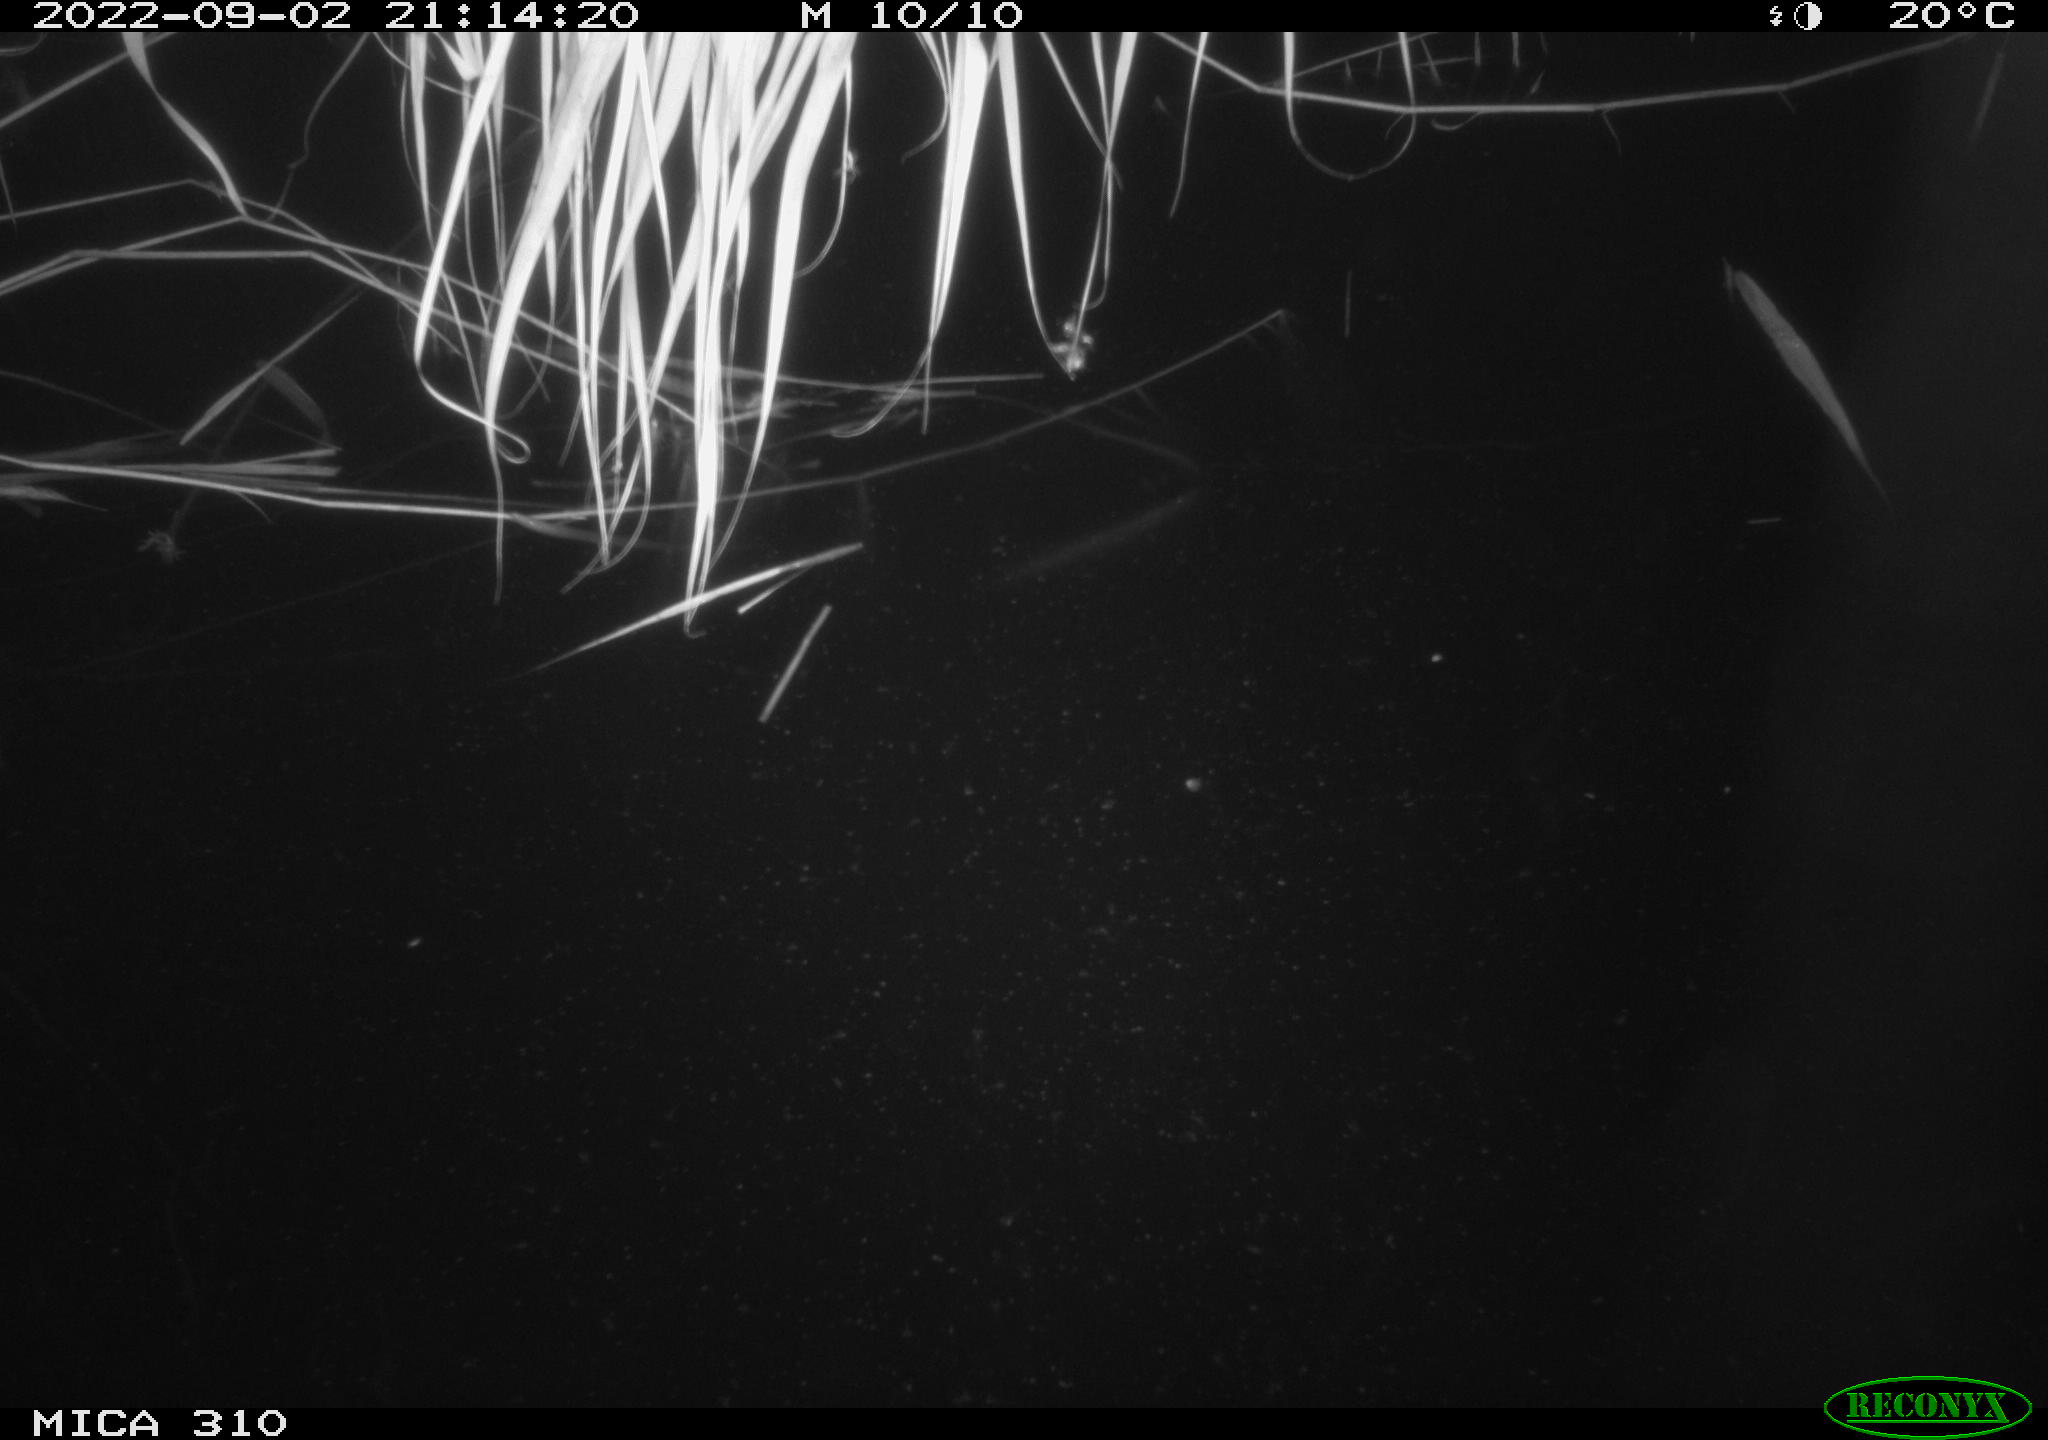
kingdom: Animalia
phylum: Chordata
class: Aves
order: Anseriformes
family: Anatidae
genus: Anas
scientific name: Anas platyrhynchos
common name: Mallard
